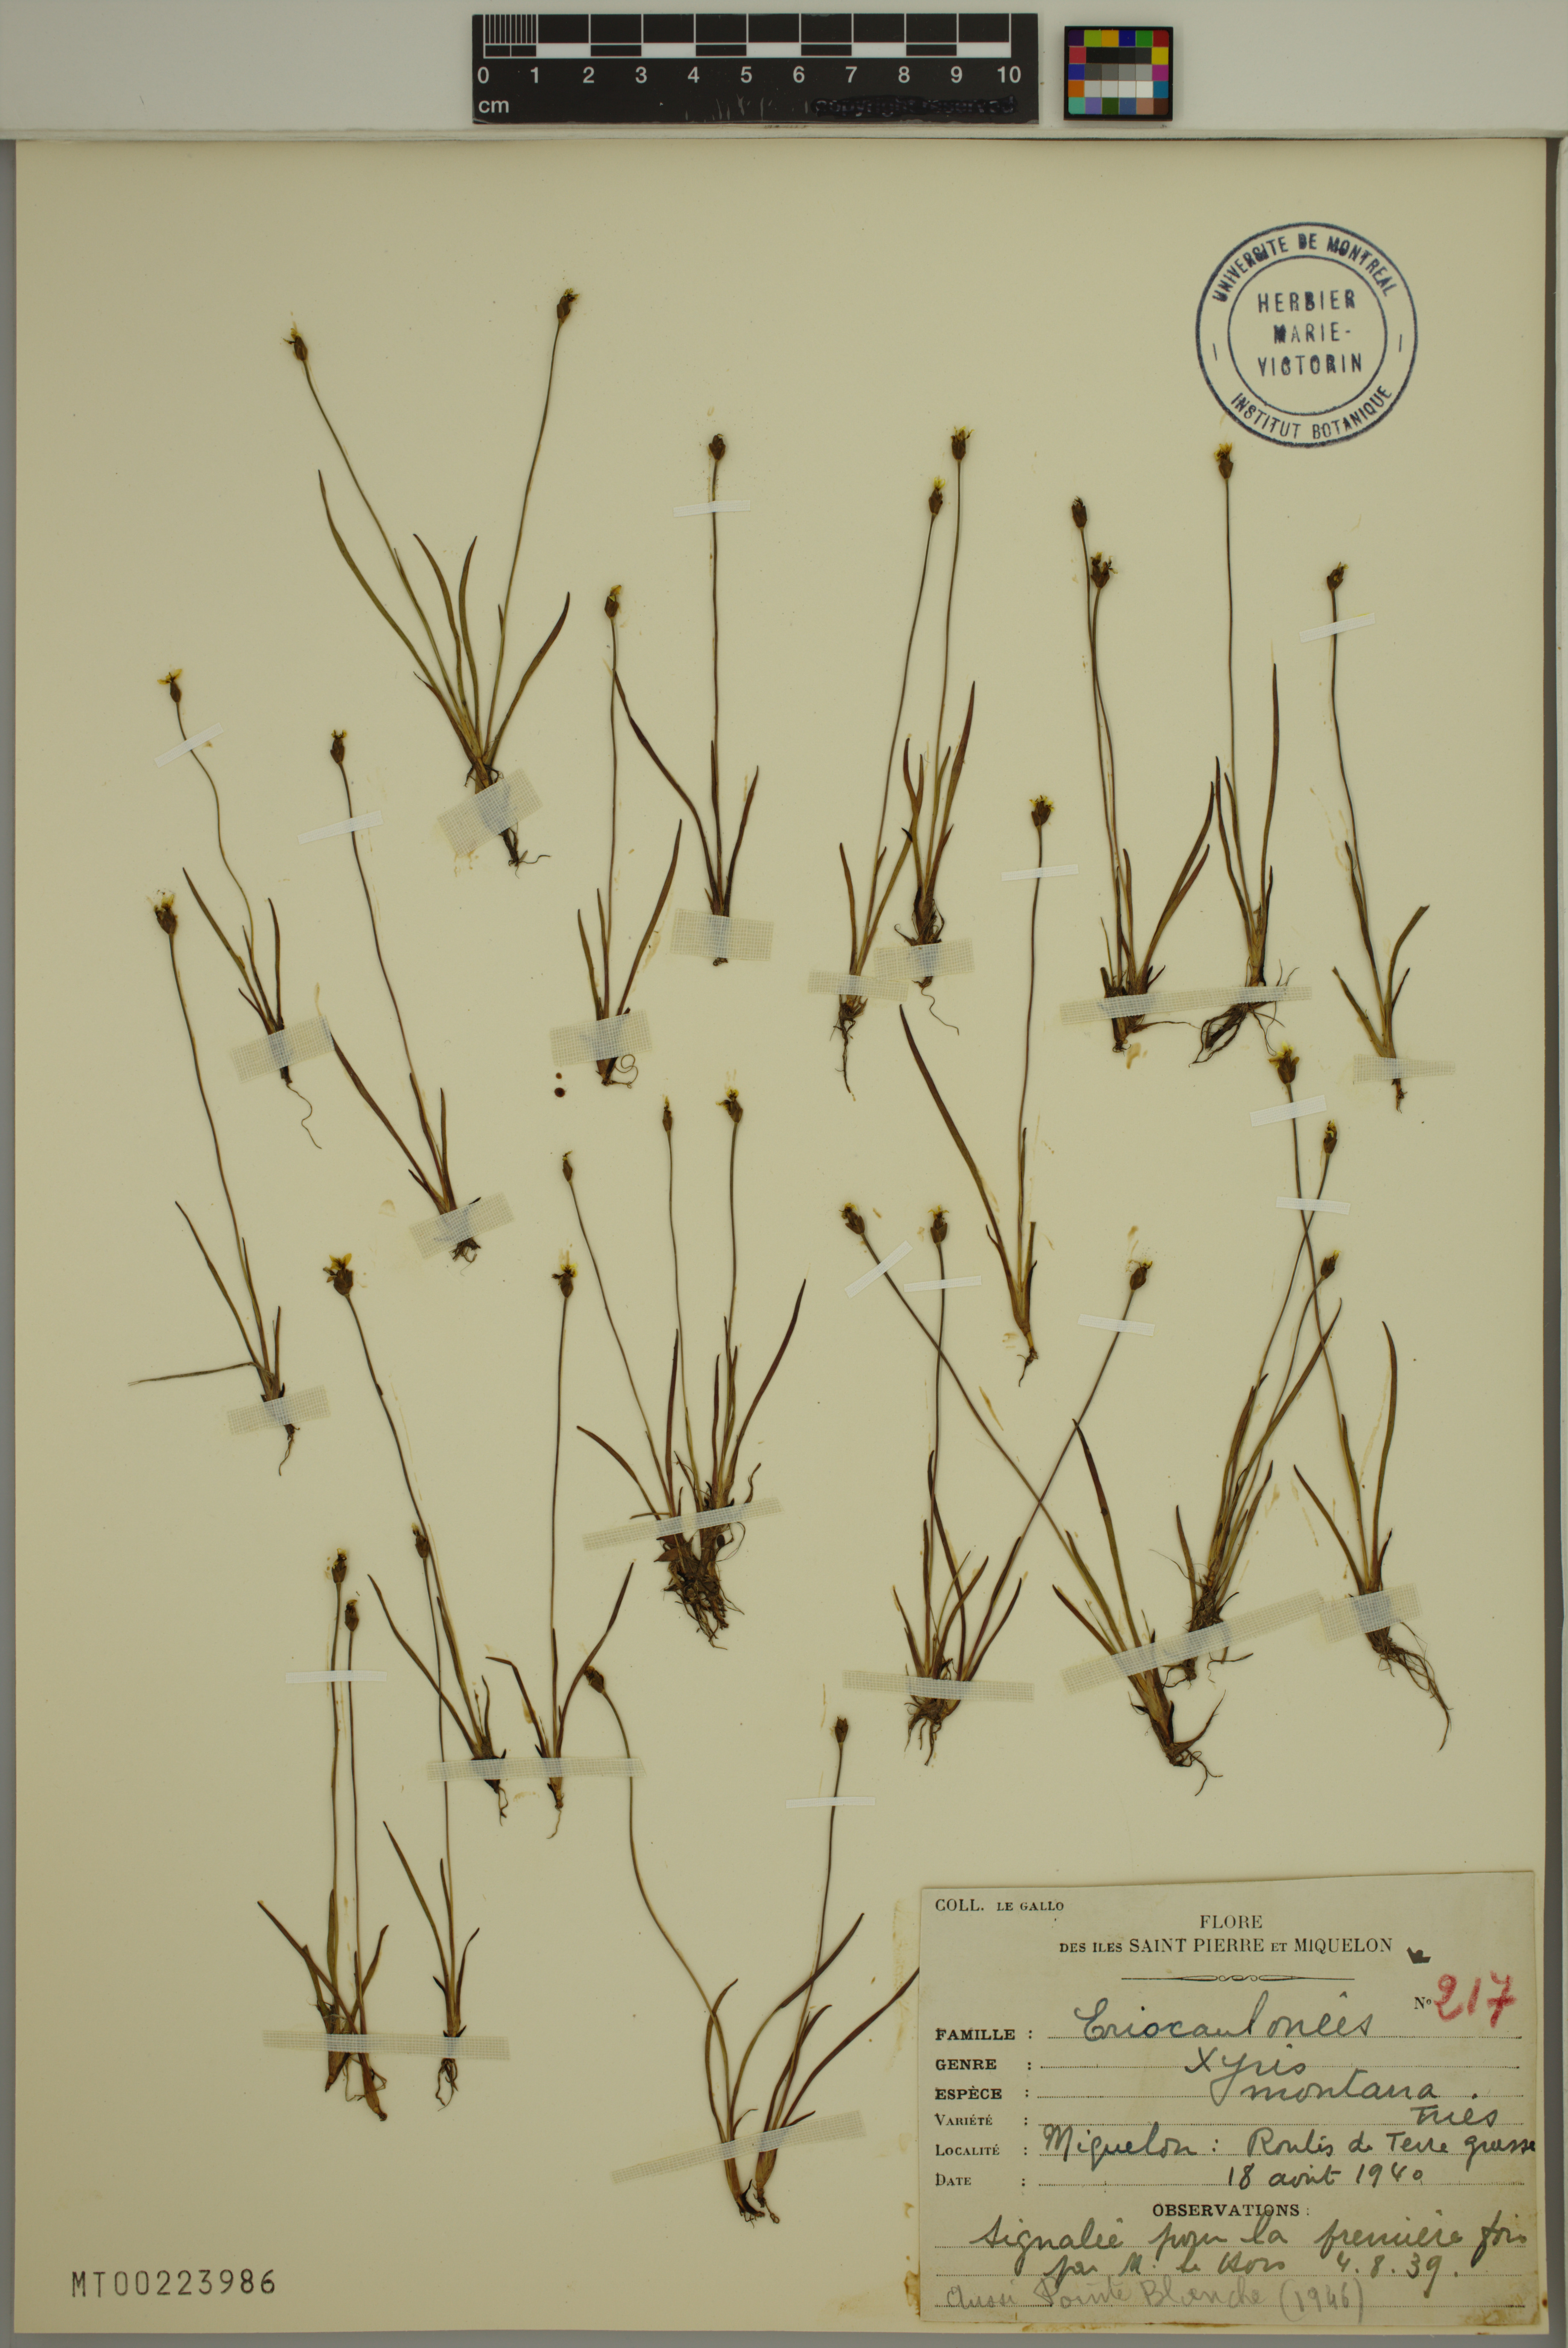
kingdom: Plantae
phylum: Tracheophyta
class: Liliopsida
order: Poales
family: Xyridaceae
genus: Xyris
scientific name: Xyris montana
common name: Northern yellow-eyed-grass
